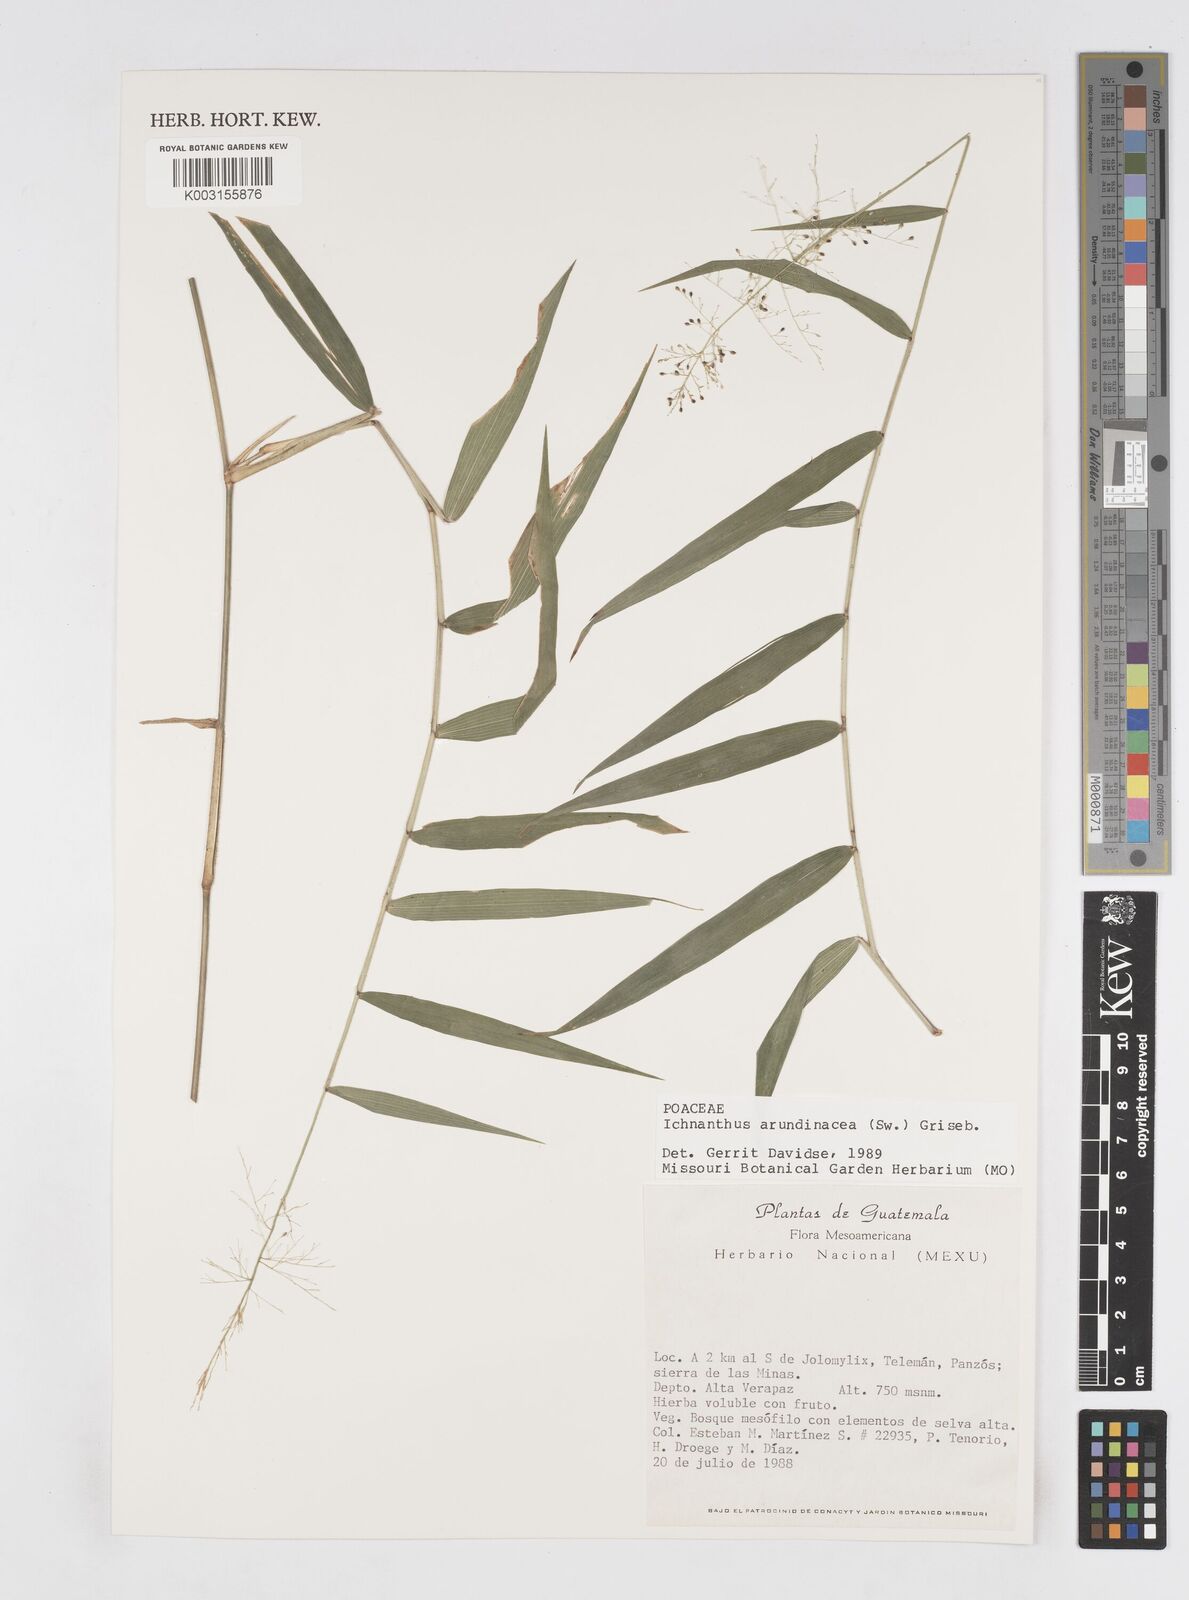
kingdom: Plantae
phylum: Tracheophyta
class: Liliopsida
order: Poales
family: Poaceae
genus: Isachne
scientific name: Isachne arundinacea
